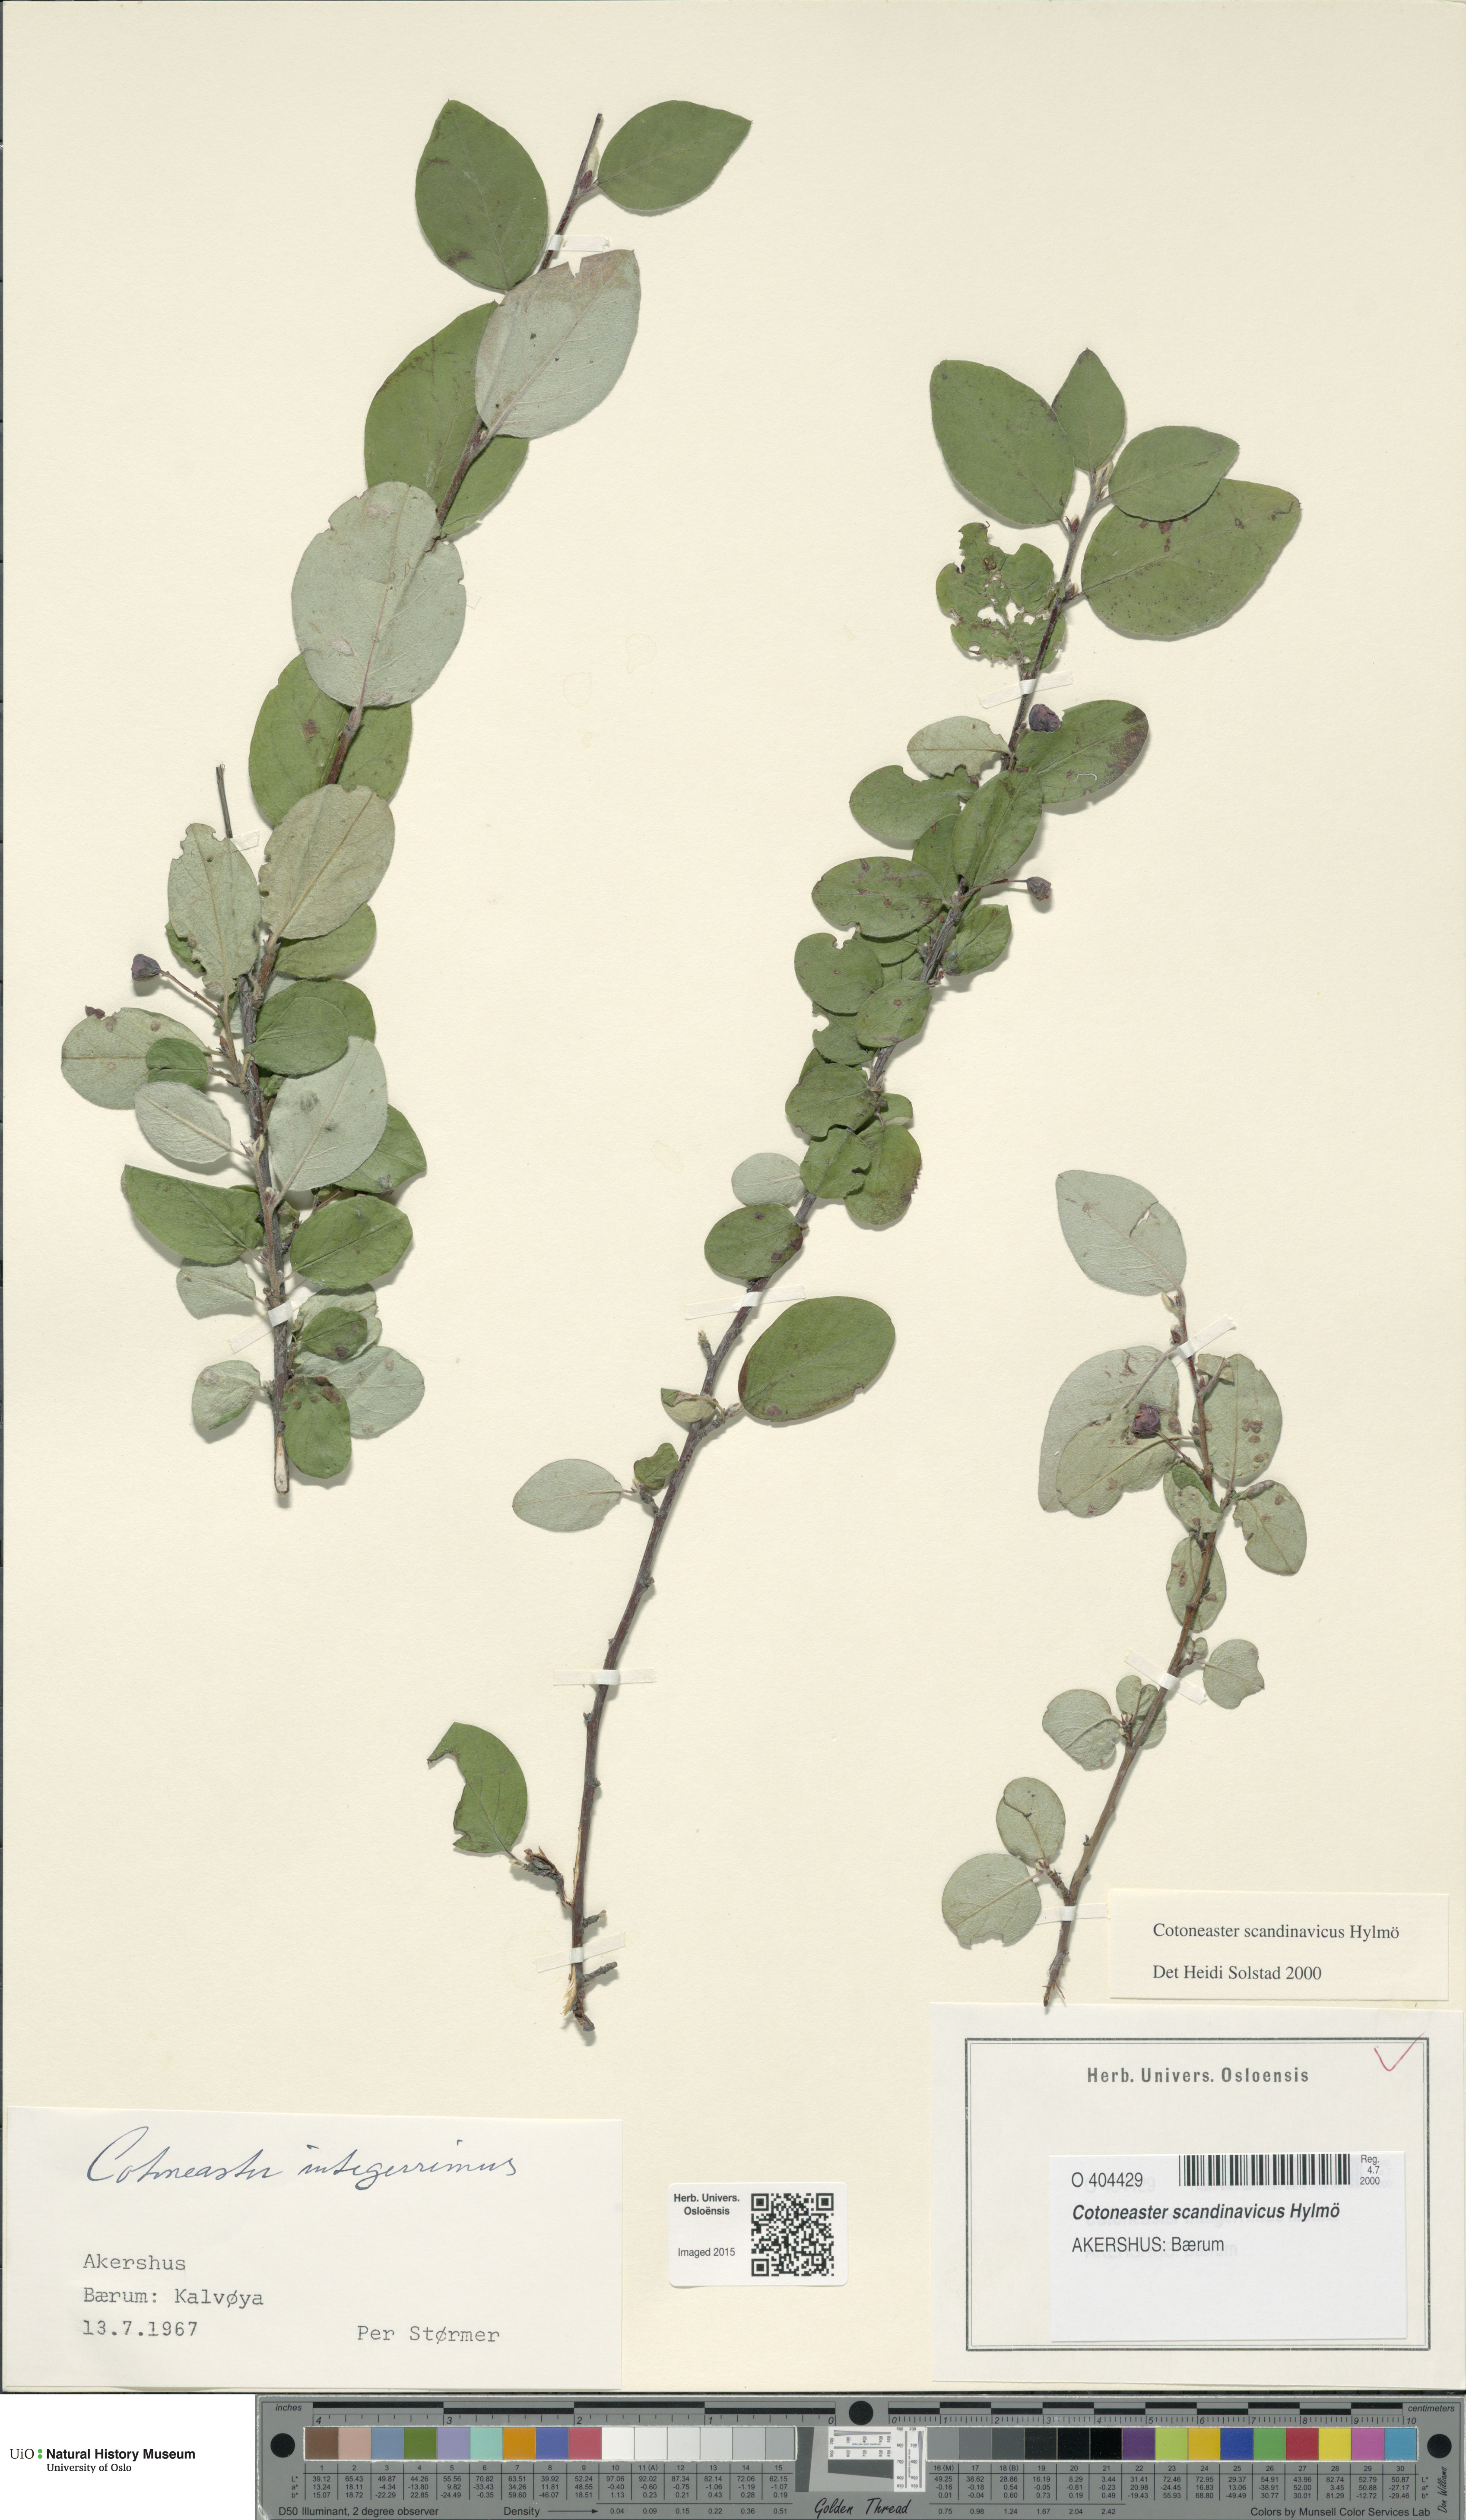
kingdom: Plantae
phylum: Tracheophyta
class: Magnoliopsida
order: Rosales
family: Rosaceae
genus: Cotoneaster
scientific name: Cotoneaster integerrimus
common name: Wild cotoneaster
